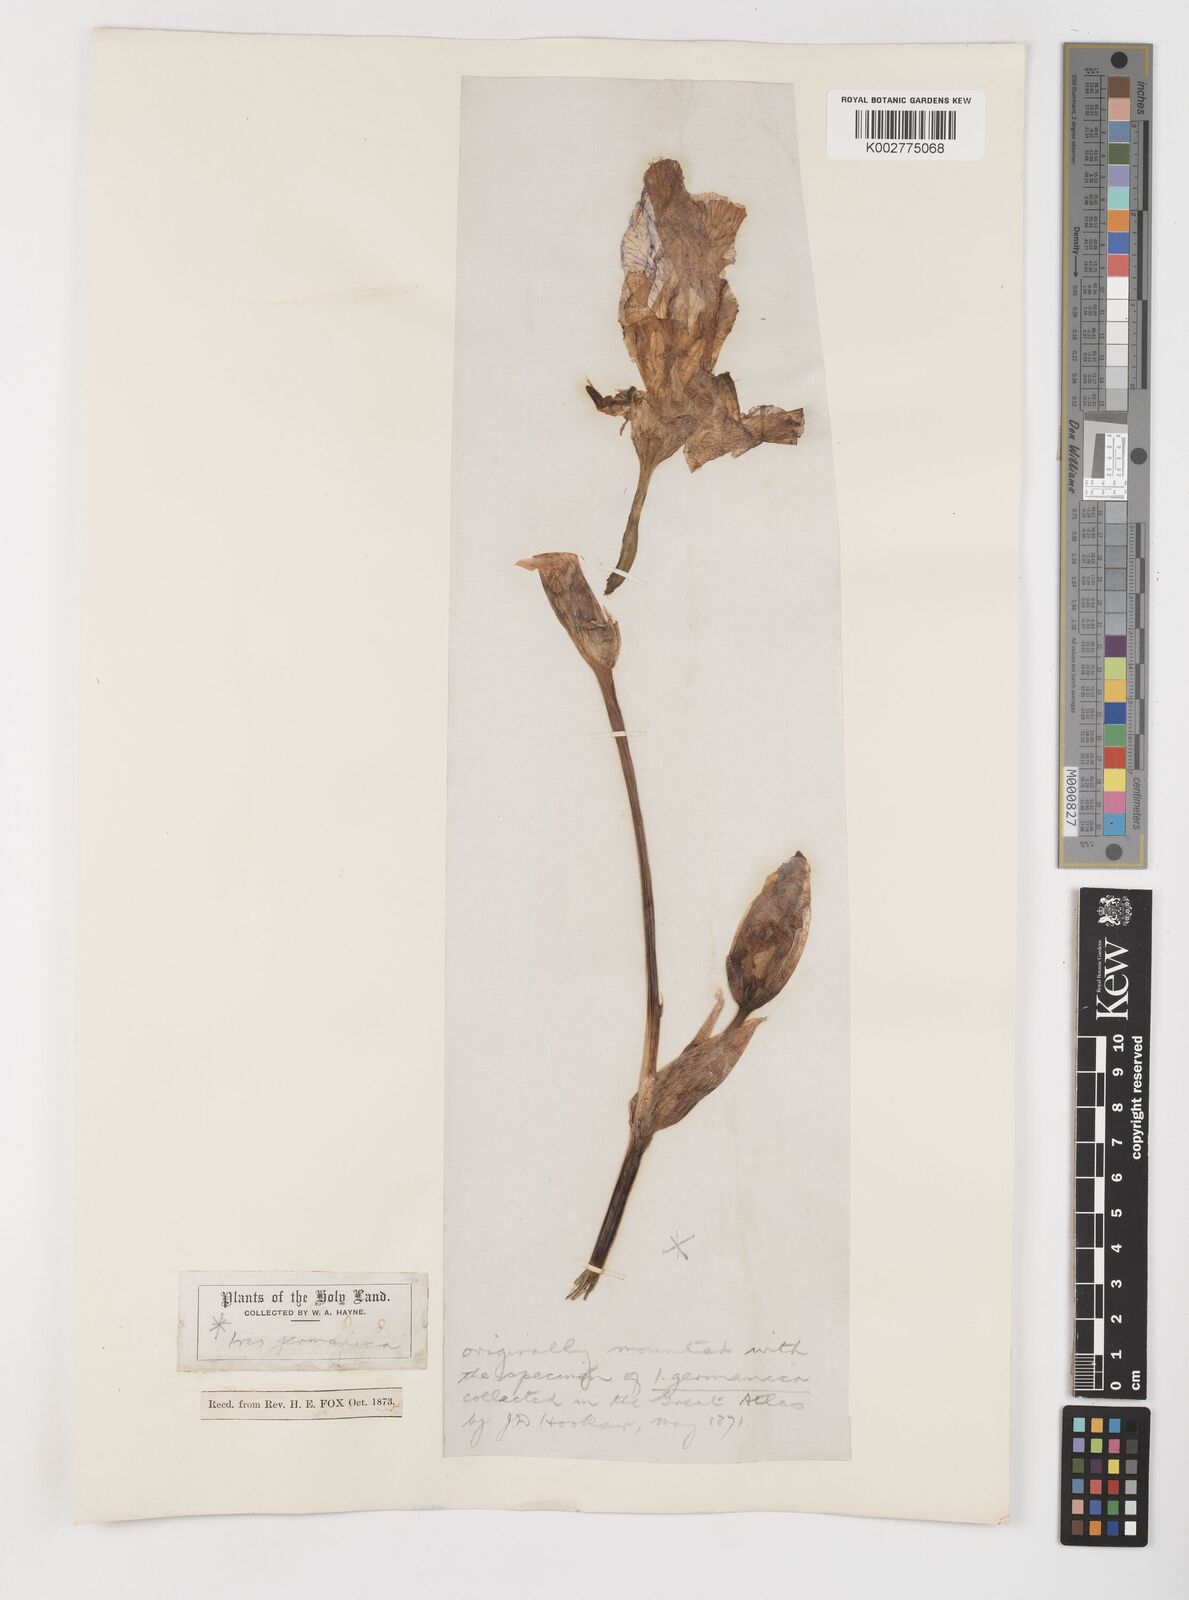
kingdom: Plantae
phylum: Tracheophyta
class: Liliopsida
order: Asparagales
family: Iridaceae
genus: Iris
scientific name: Iris germanica
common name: German iris
